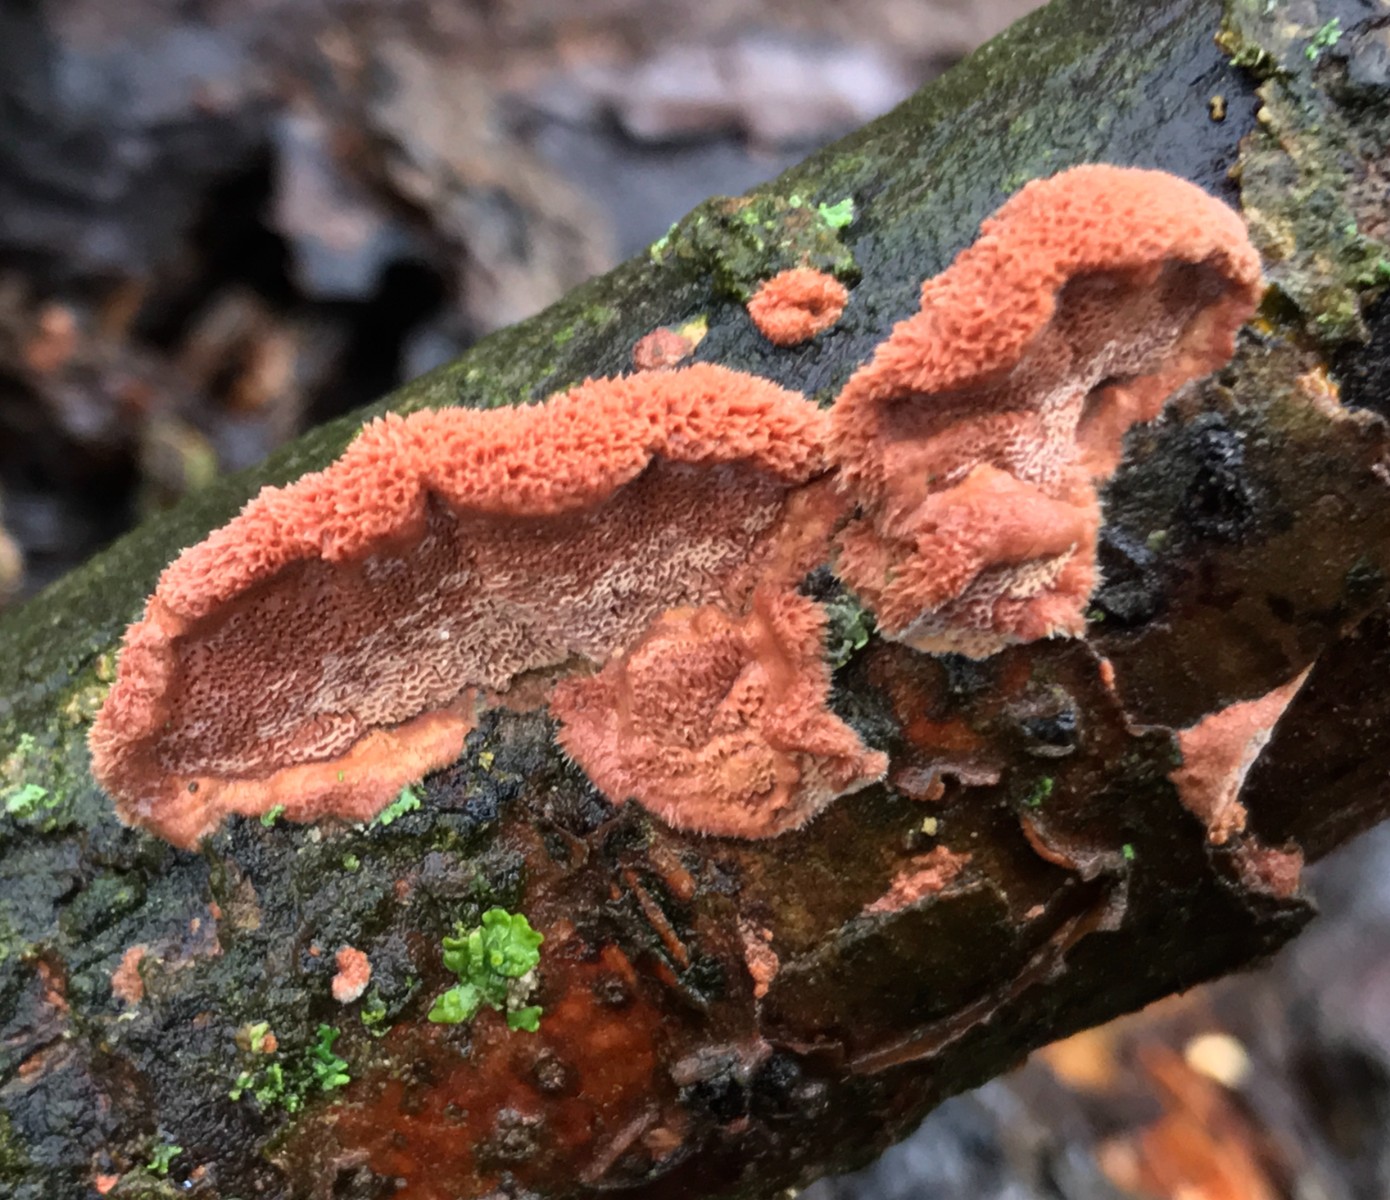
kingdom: Fungi
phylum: Basidiomycota
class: Agaricomycetes
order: Polyporales
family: Phanerochaetaceae
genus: Hapalopilus
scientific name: Hapalopilus rutilans
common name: rødlig okkerporesvamp
